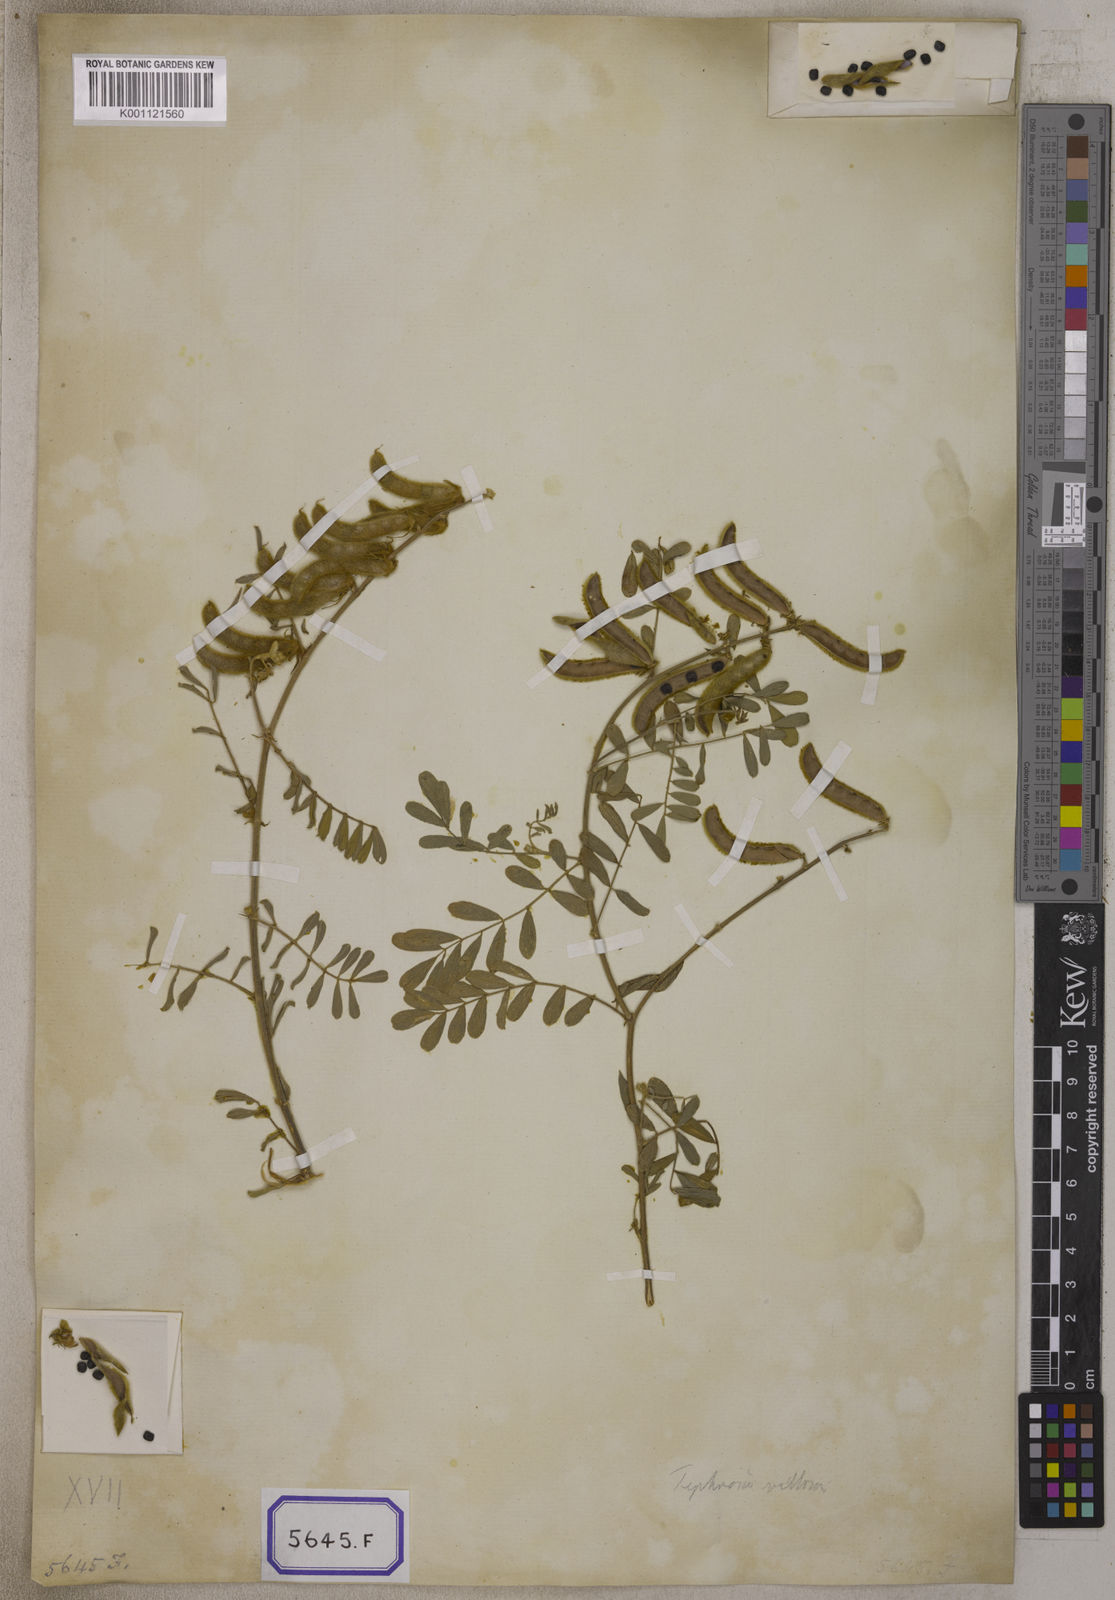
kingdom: Plantae
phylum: Tracheophyta
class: Magnoliopsida
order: Fabales
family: Fabaceae
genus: Tephrosia
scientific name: Tephrosia villosa
